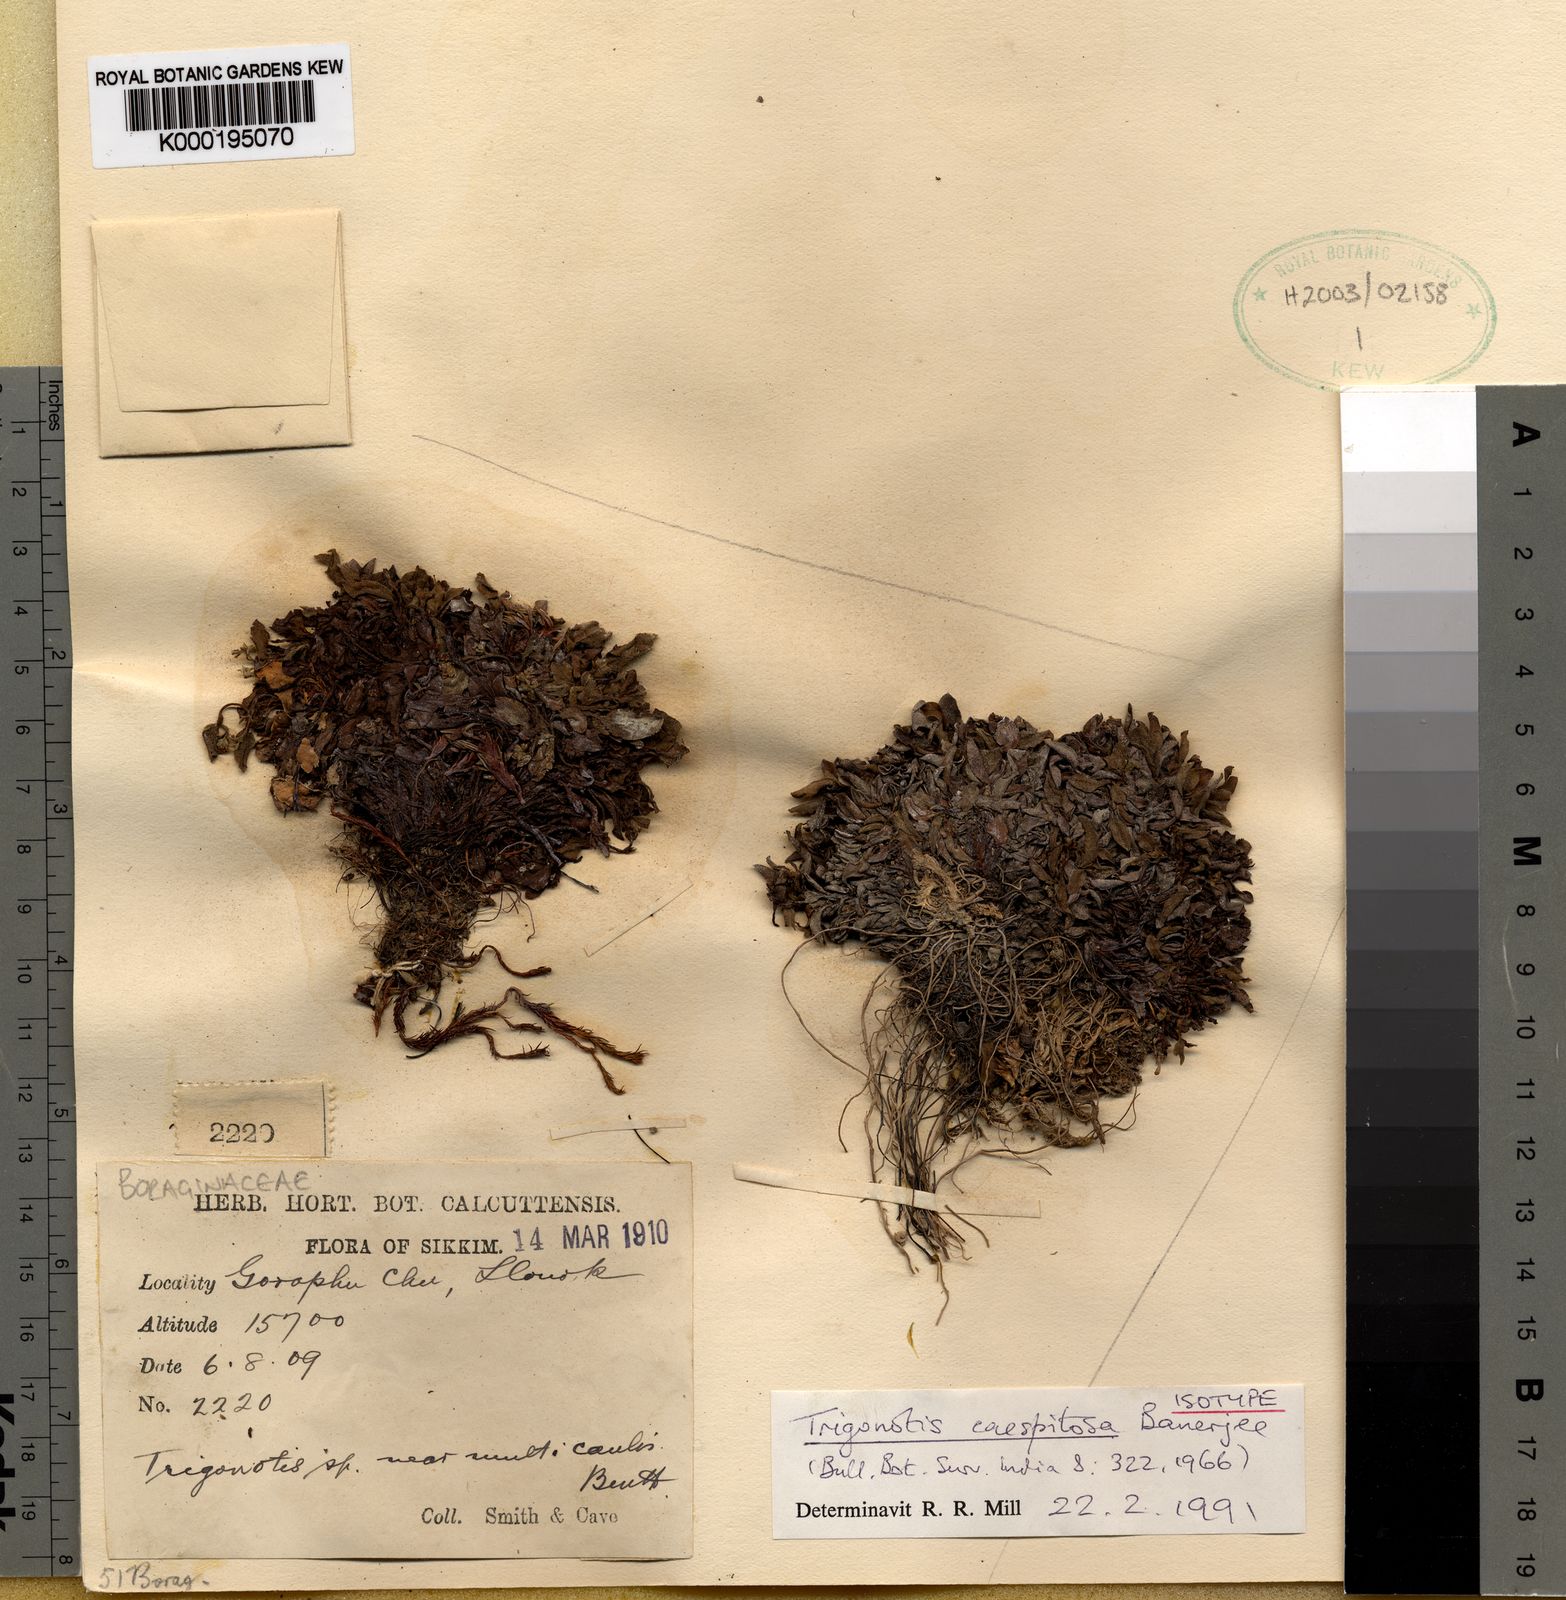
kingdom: Plantae
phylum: Tracheophyta
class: Magnoliopsida
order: Boraginales
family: Boraginaceae
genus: Trigonotis
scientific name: Trigonotis caespitosa
